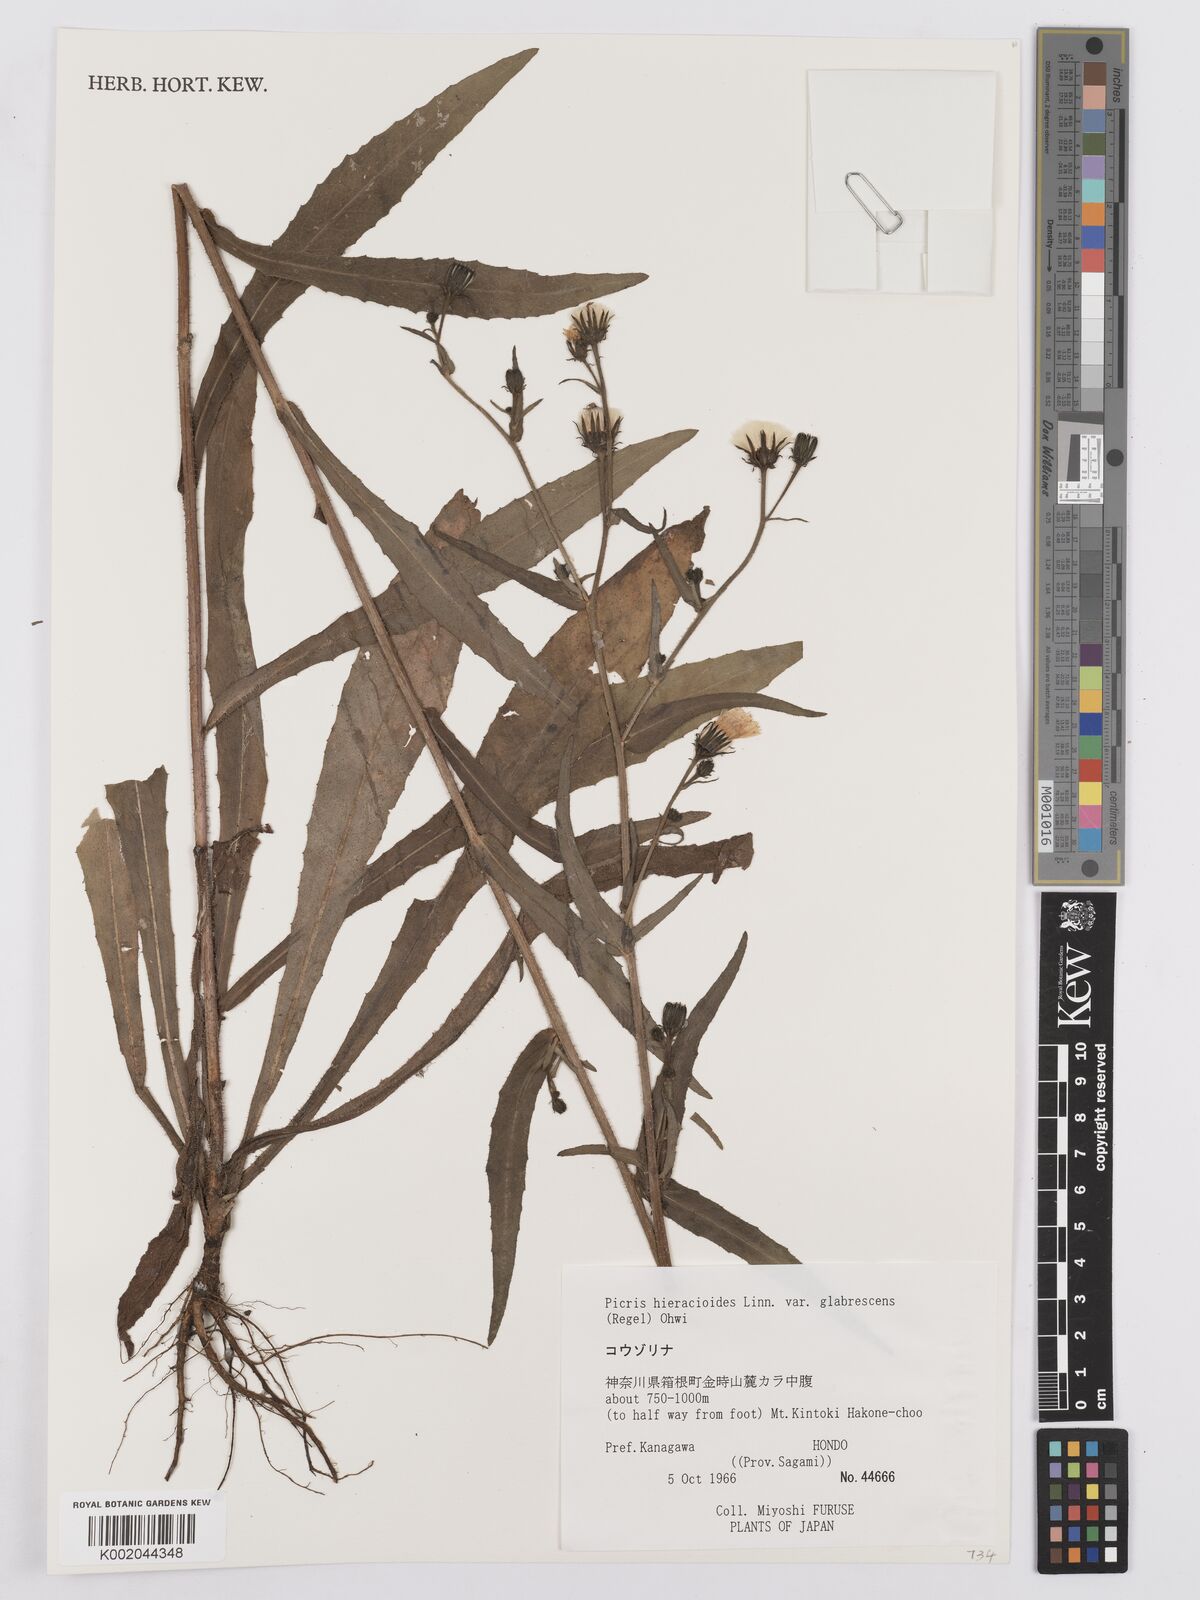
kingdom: Plantae
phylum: Tracheophyta
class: Magnoliopsida
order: Asterales
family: Asteraceae
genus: Picris
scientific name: Picris hieracioides
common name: Hawkweed oxtongue
